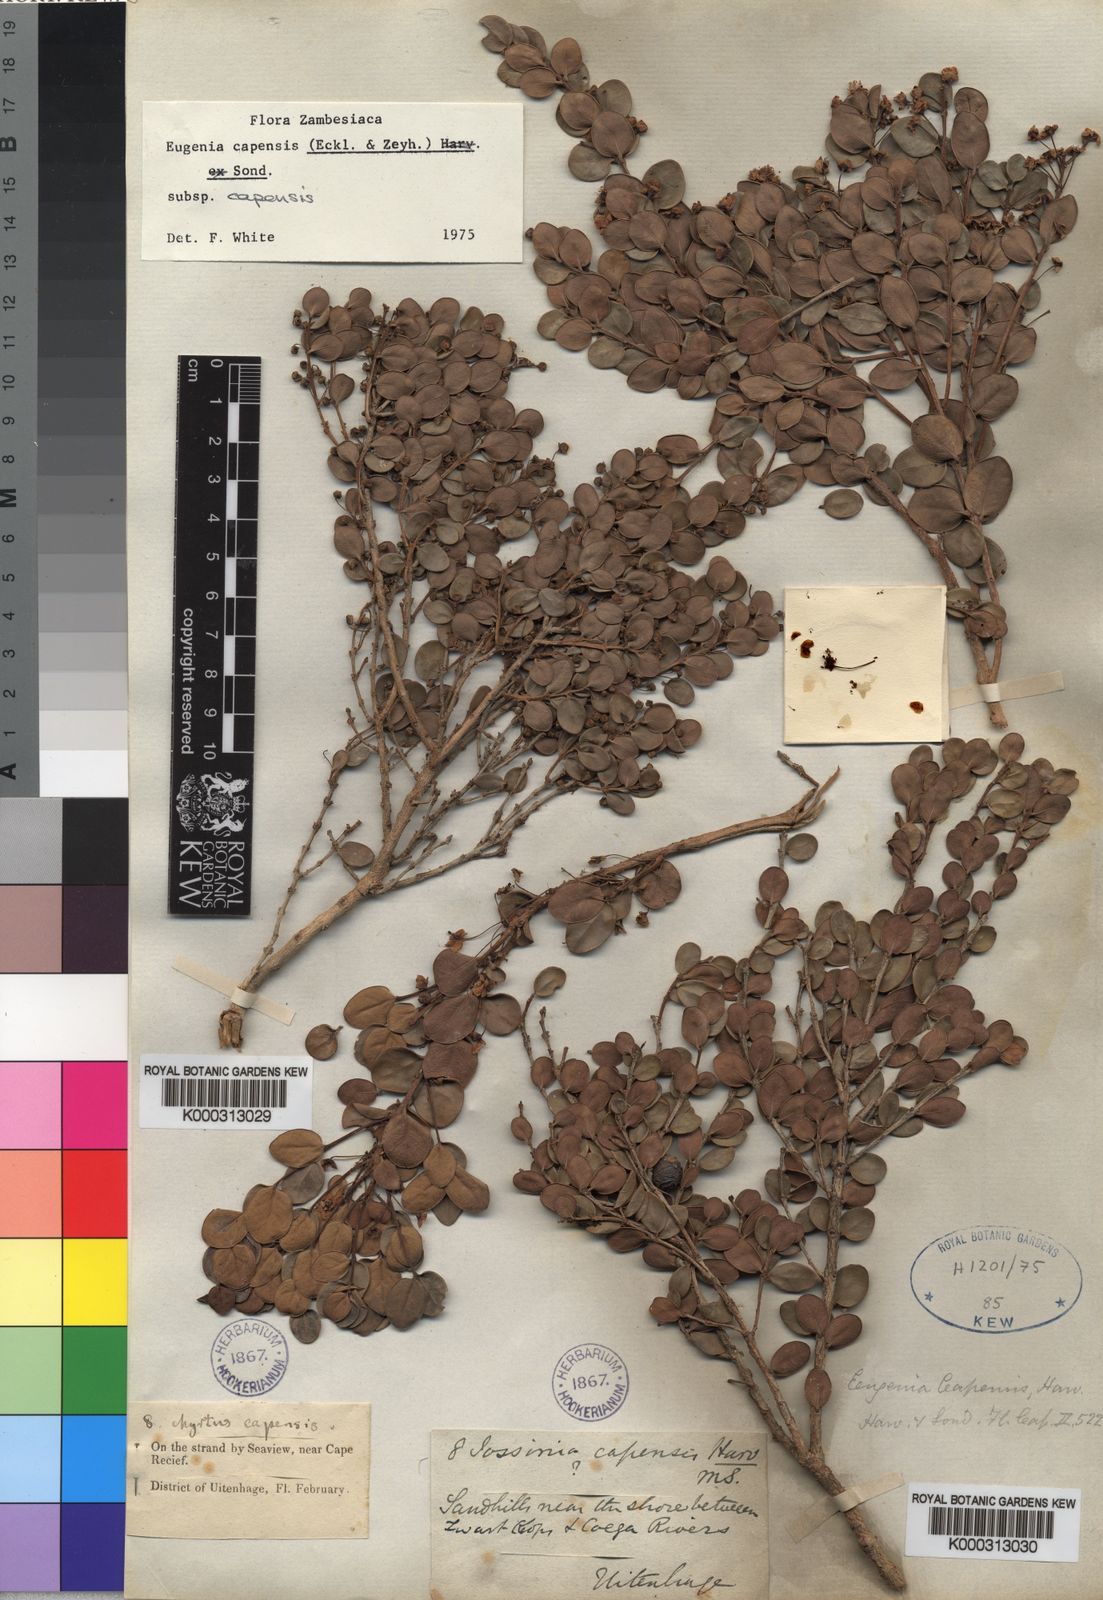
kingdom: Plantae
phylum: Tracheophyta
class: Magnoliopsida
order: Myrtales
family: Myrtaceae
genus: Eugenia
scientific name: Eugenia capensis
